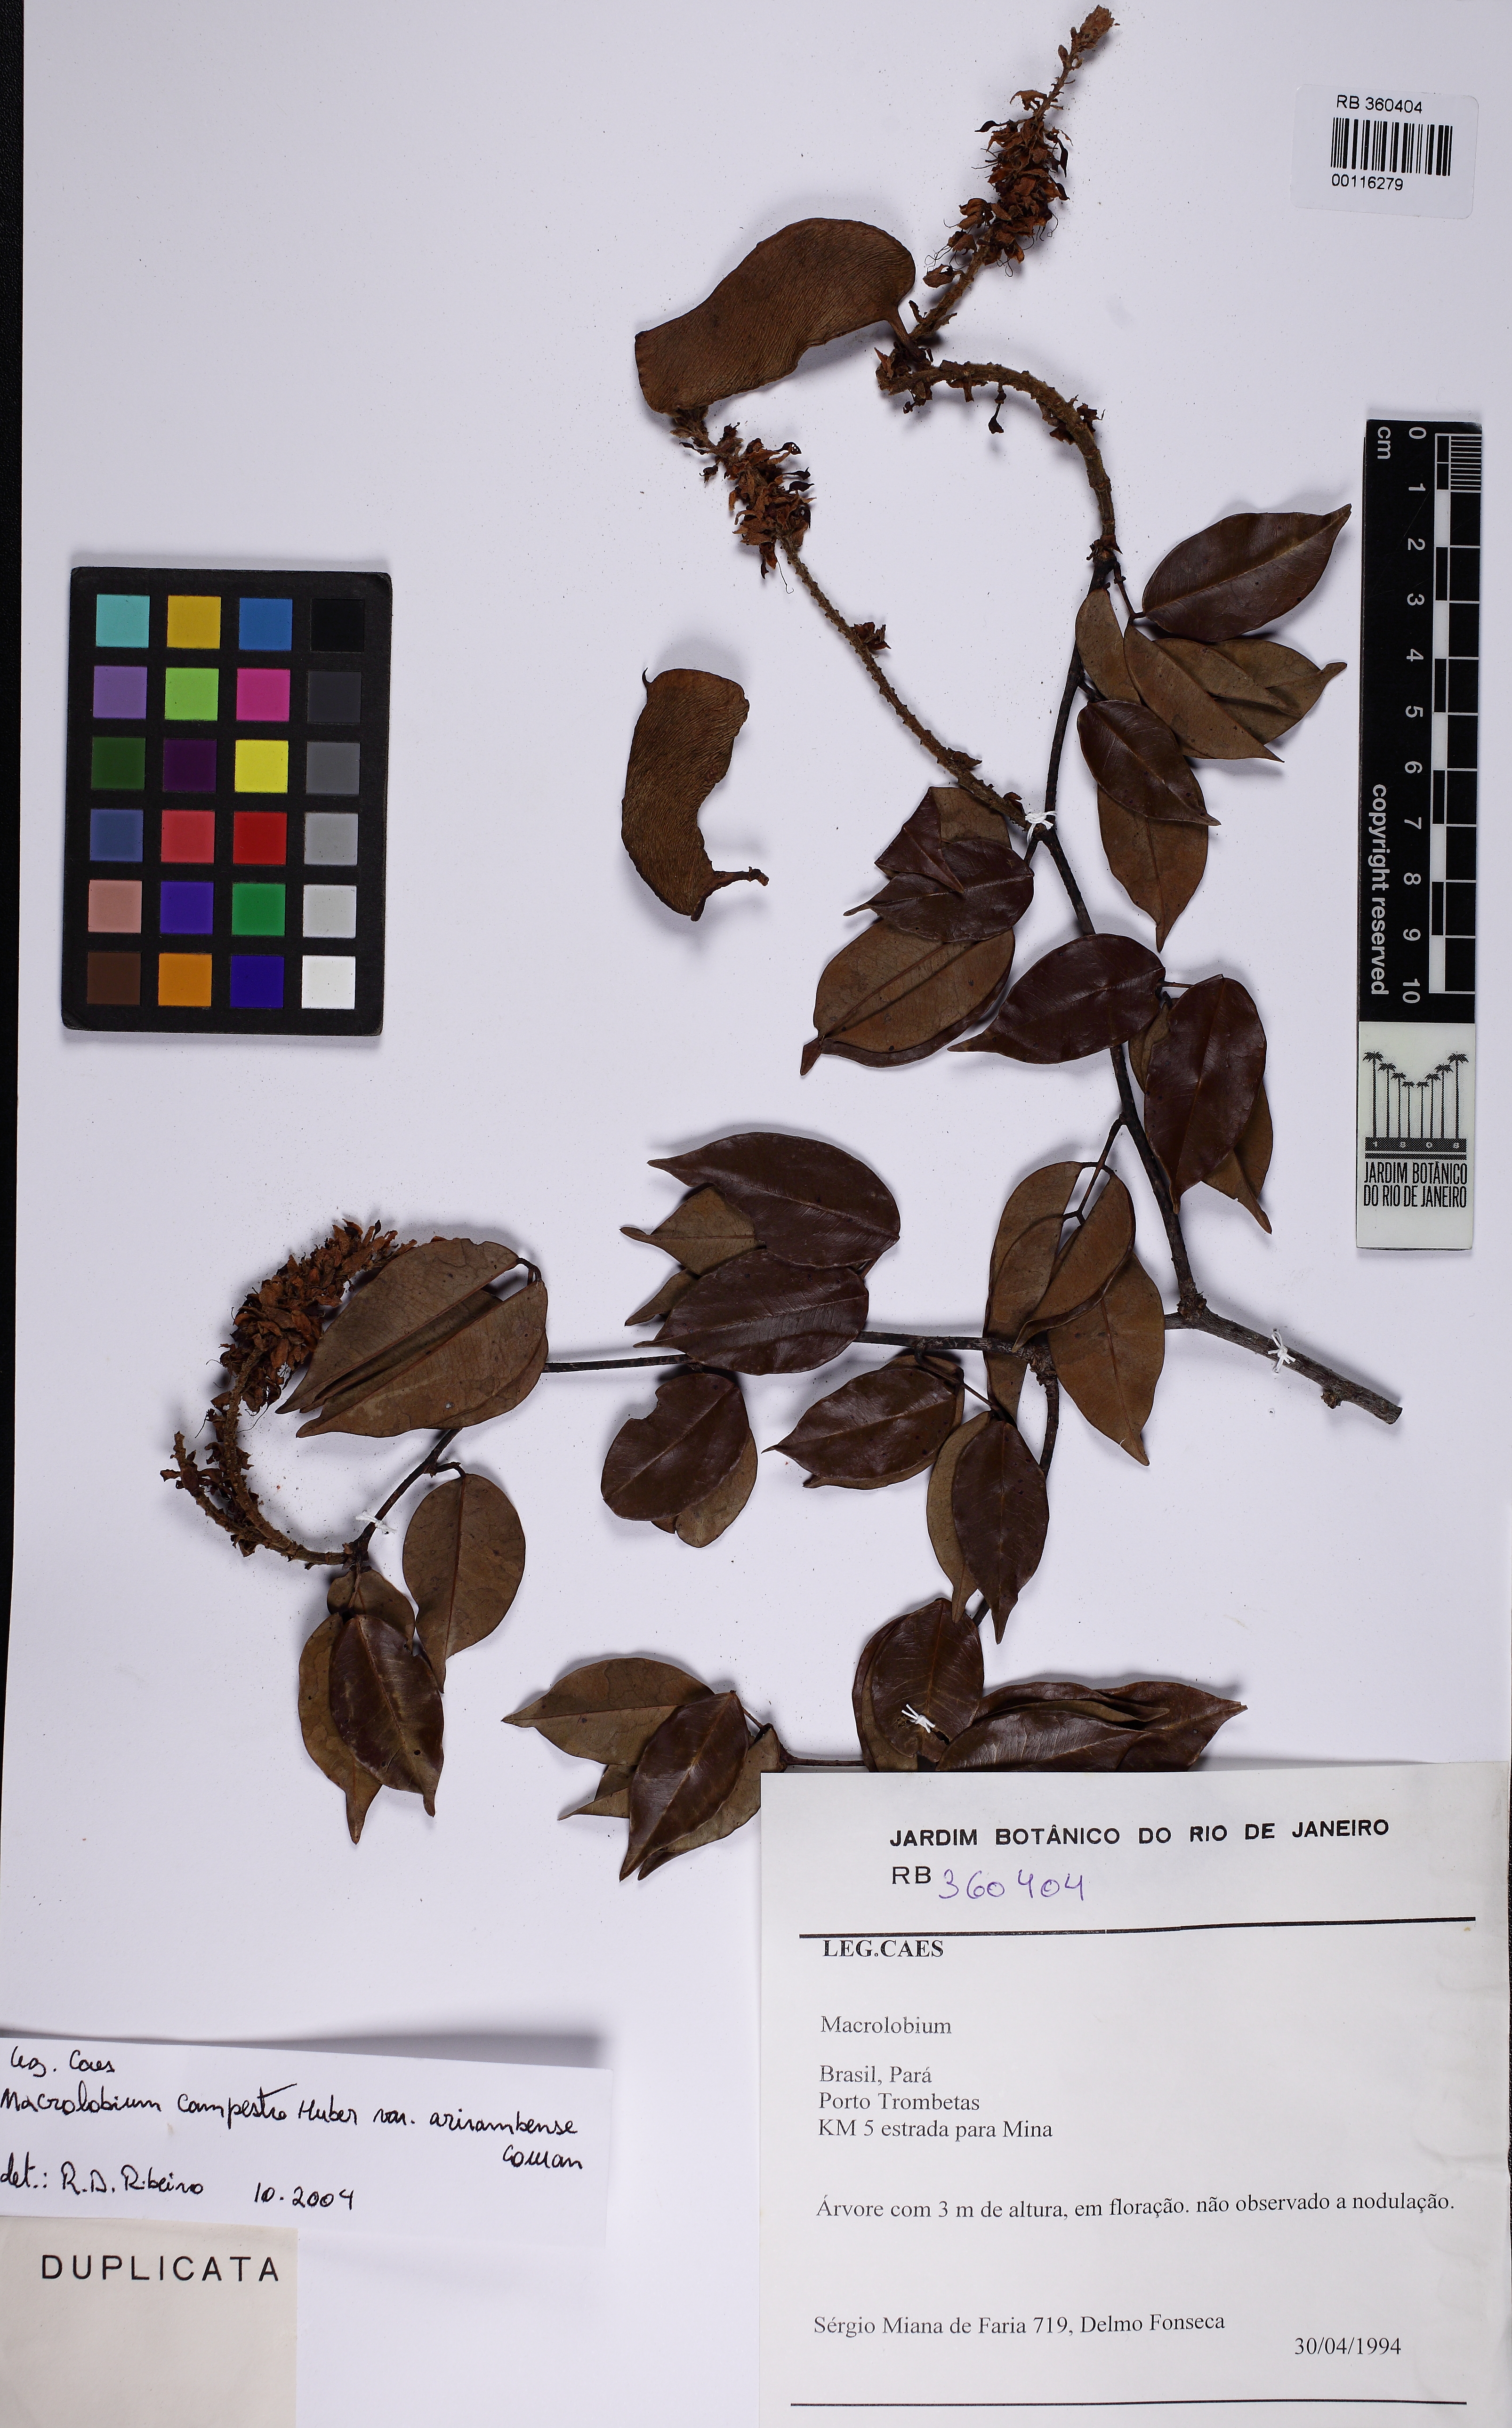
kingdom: Plantae
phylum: Tracheophyta
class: Magnoliopsida
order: Fabales
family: Fabaceae
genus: Macrolobium
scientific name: Macrolobium campestre
